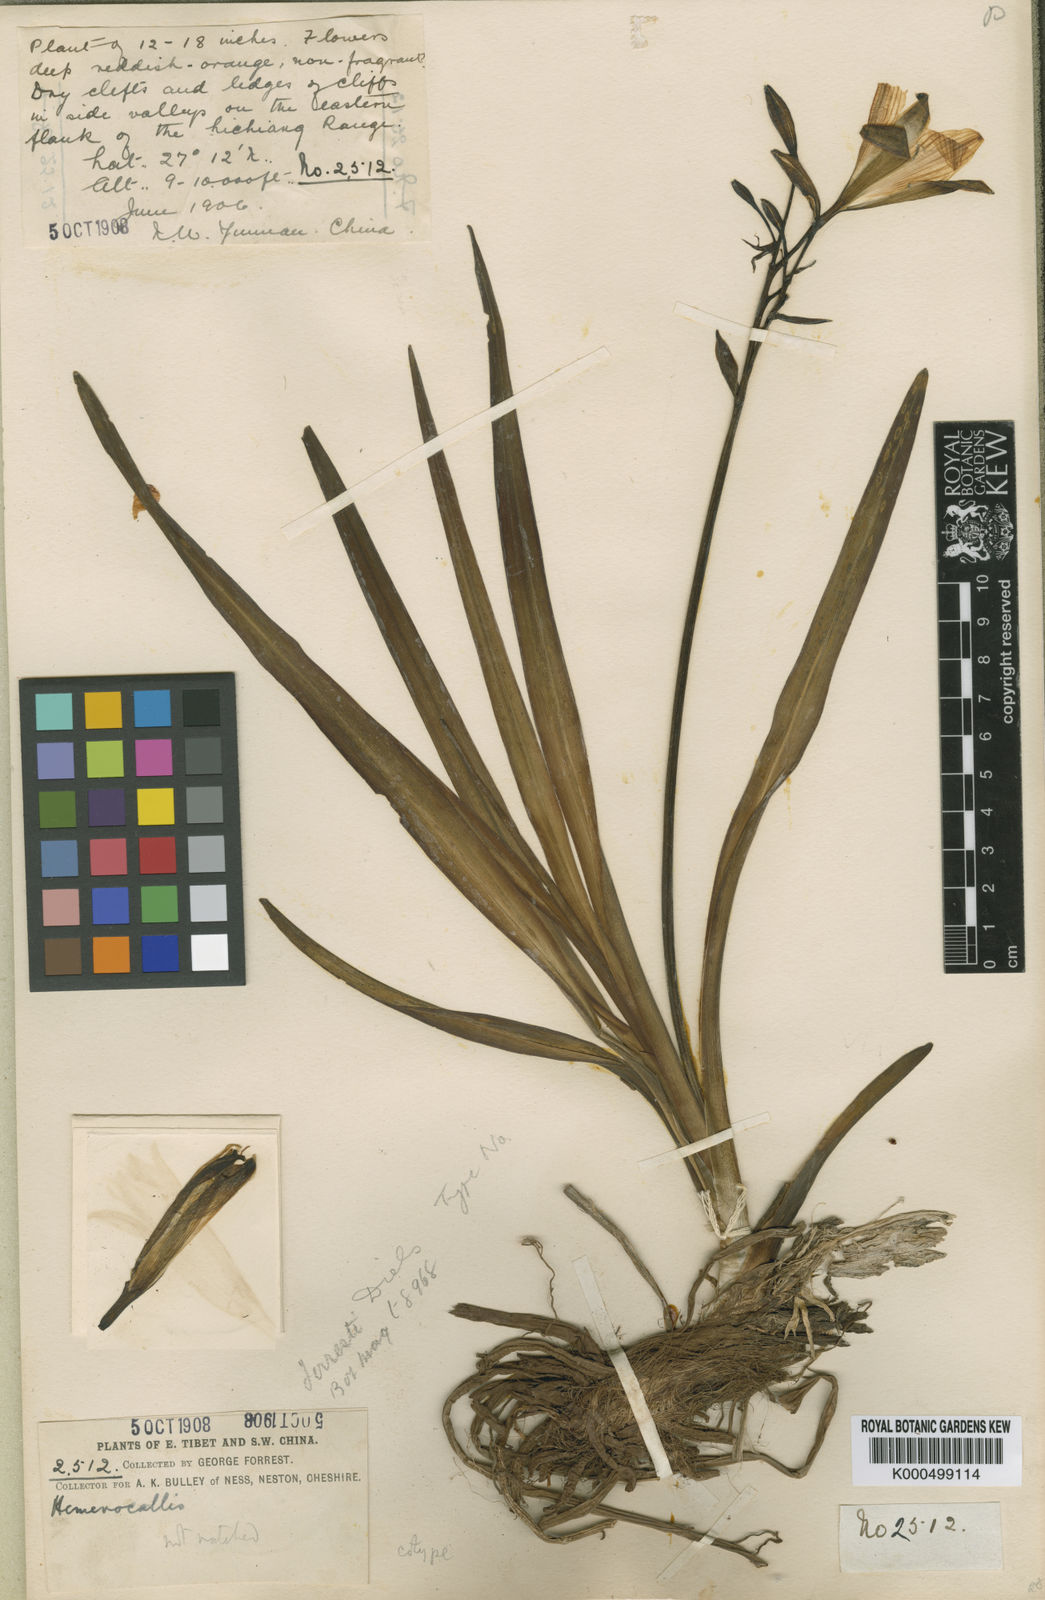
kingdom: Plantae
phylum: Tracheophyta
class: Liliopsida
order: Asparagales
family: Asphodelaceae
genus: Hemerocallis
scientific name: Hemerocallis forrestii
